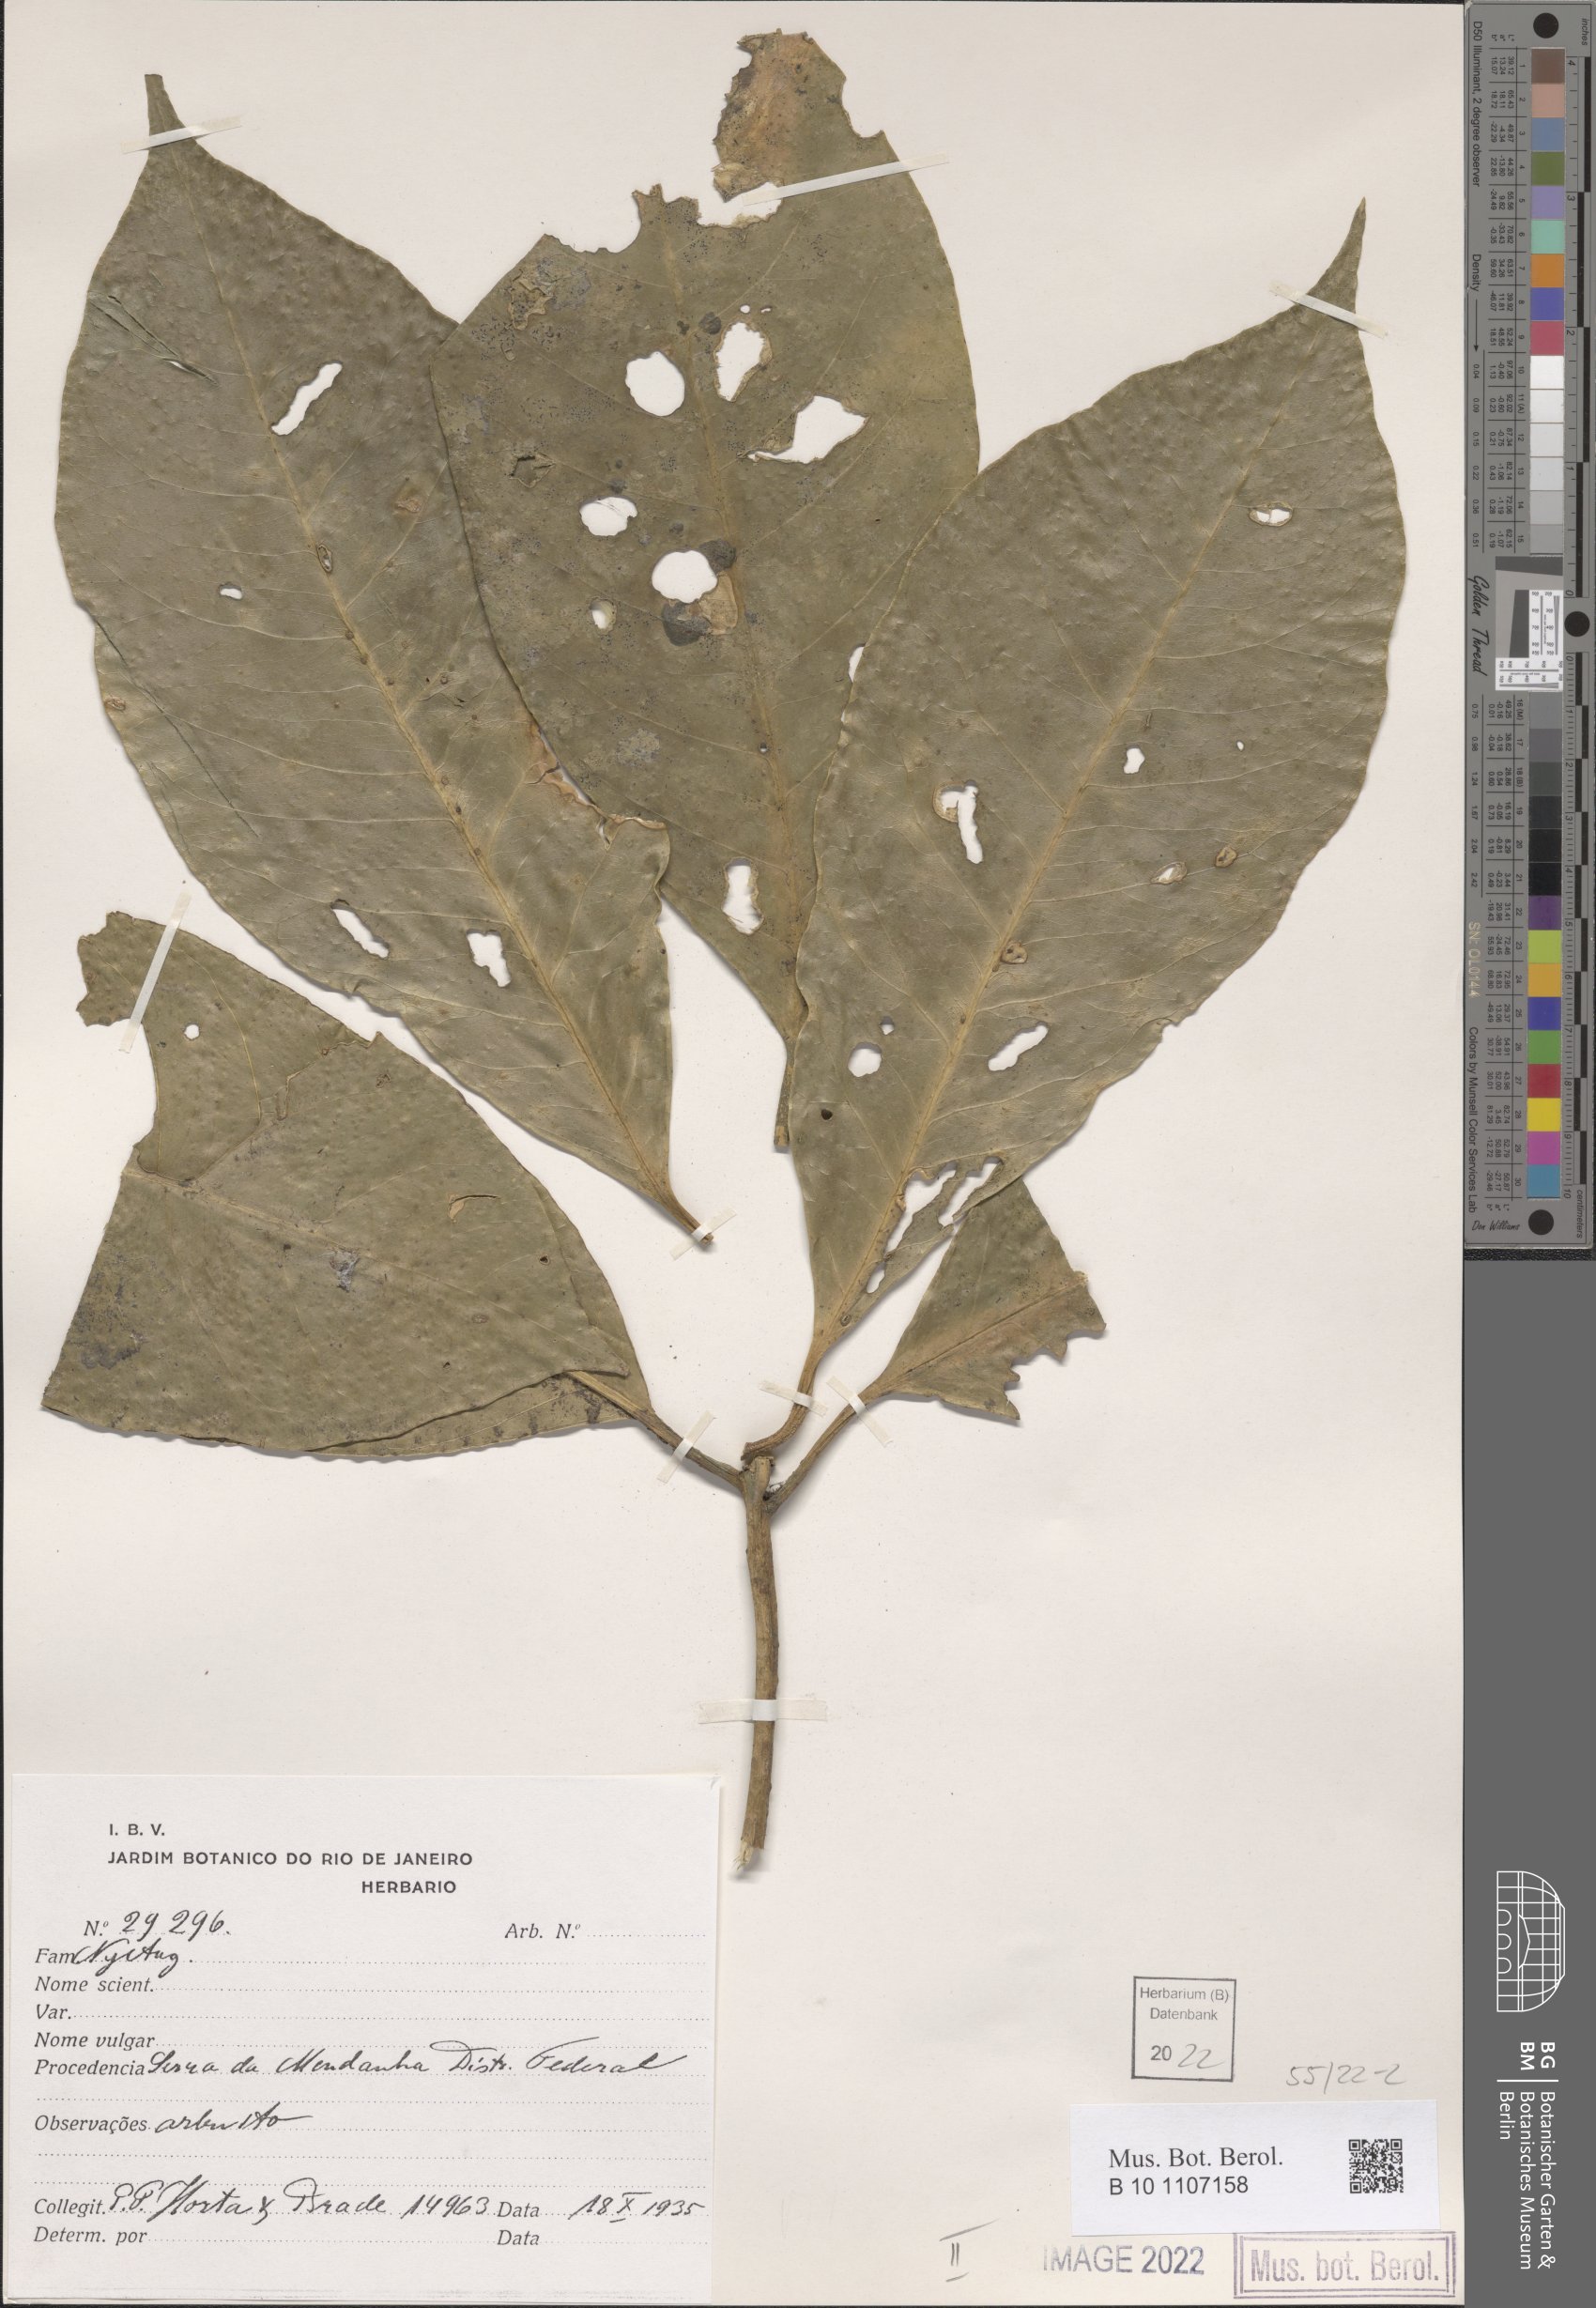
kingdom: Plantae
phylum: Tracheophyta
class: Magnoliopsida
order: Caryophyllales
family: Nyctaginaceae
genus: Neea
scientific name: Neea
